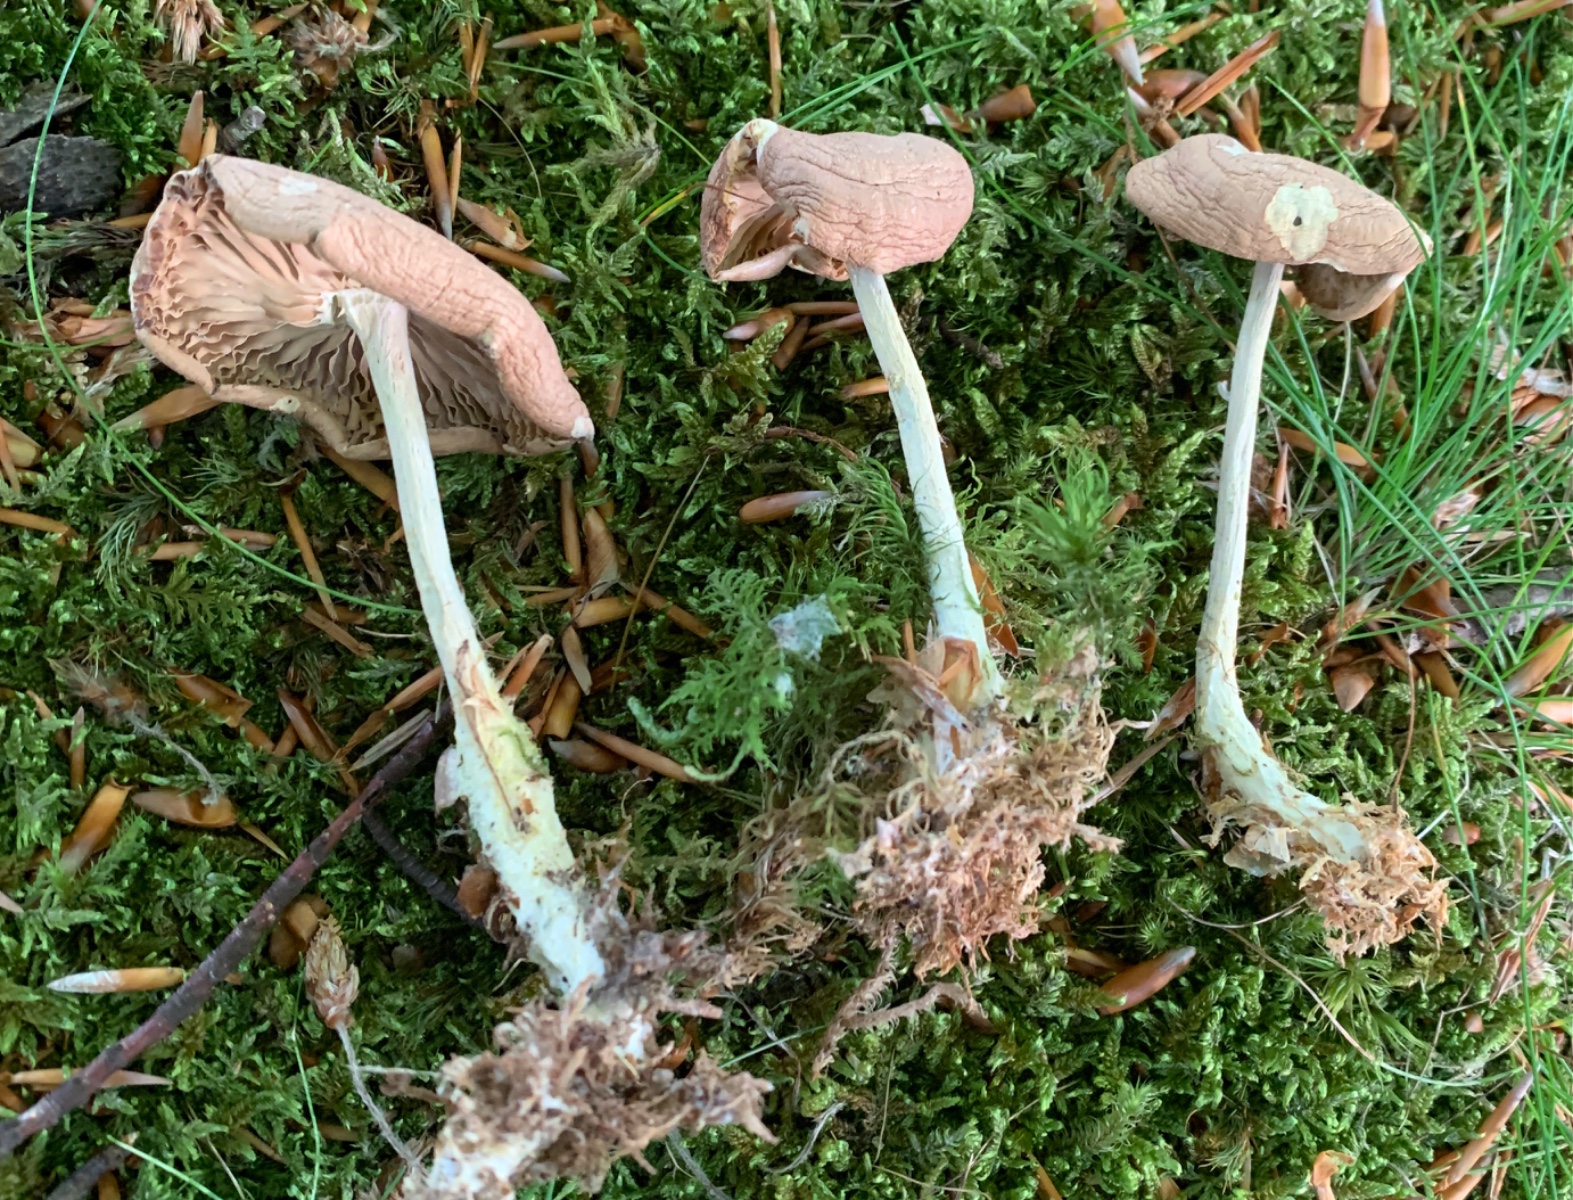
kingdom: Fungi
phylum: Basidiomycota
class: Agaricomycetes
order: Agaricales
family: Omphalotaceae
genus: Collybiopsis
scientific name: Collybiopsis peronata
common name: bestøvlet fladhat
